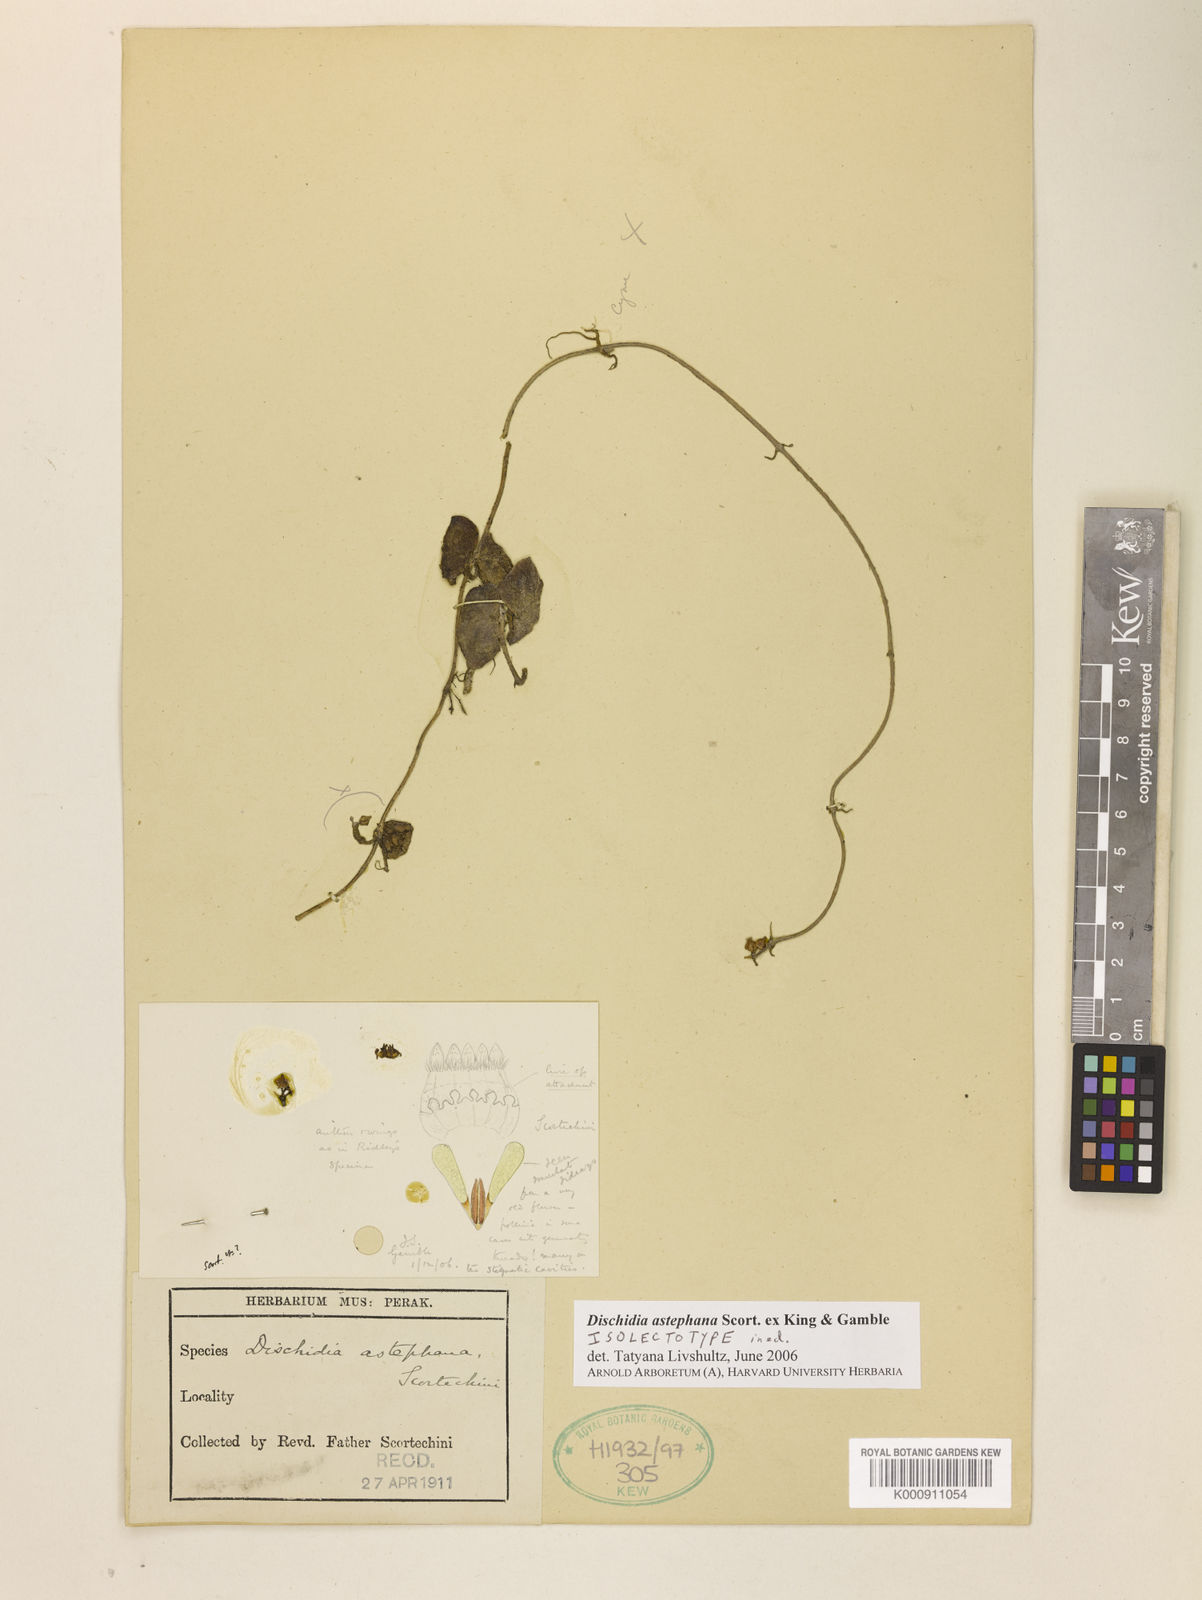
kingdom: Plantae
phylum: Tracheophyta
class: Magnoliopsida
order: Gentianales
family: Apocynaceae
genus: Dischidia
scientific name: Dischidia astephana
